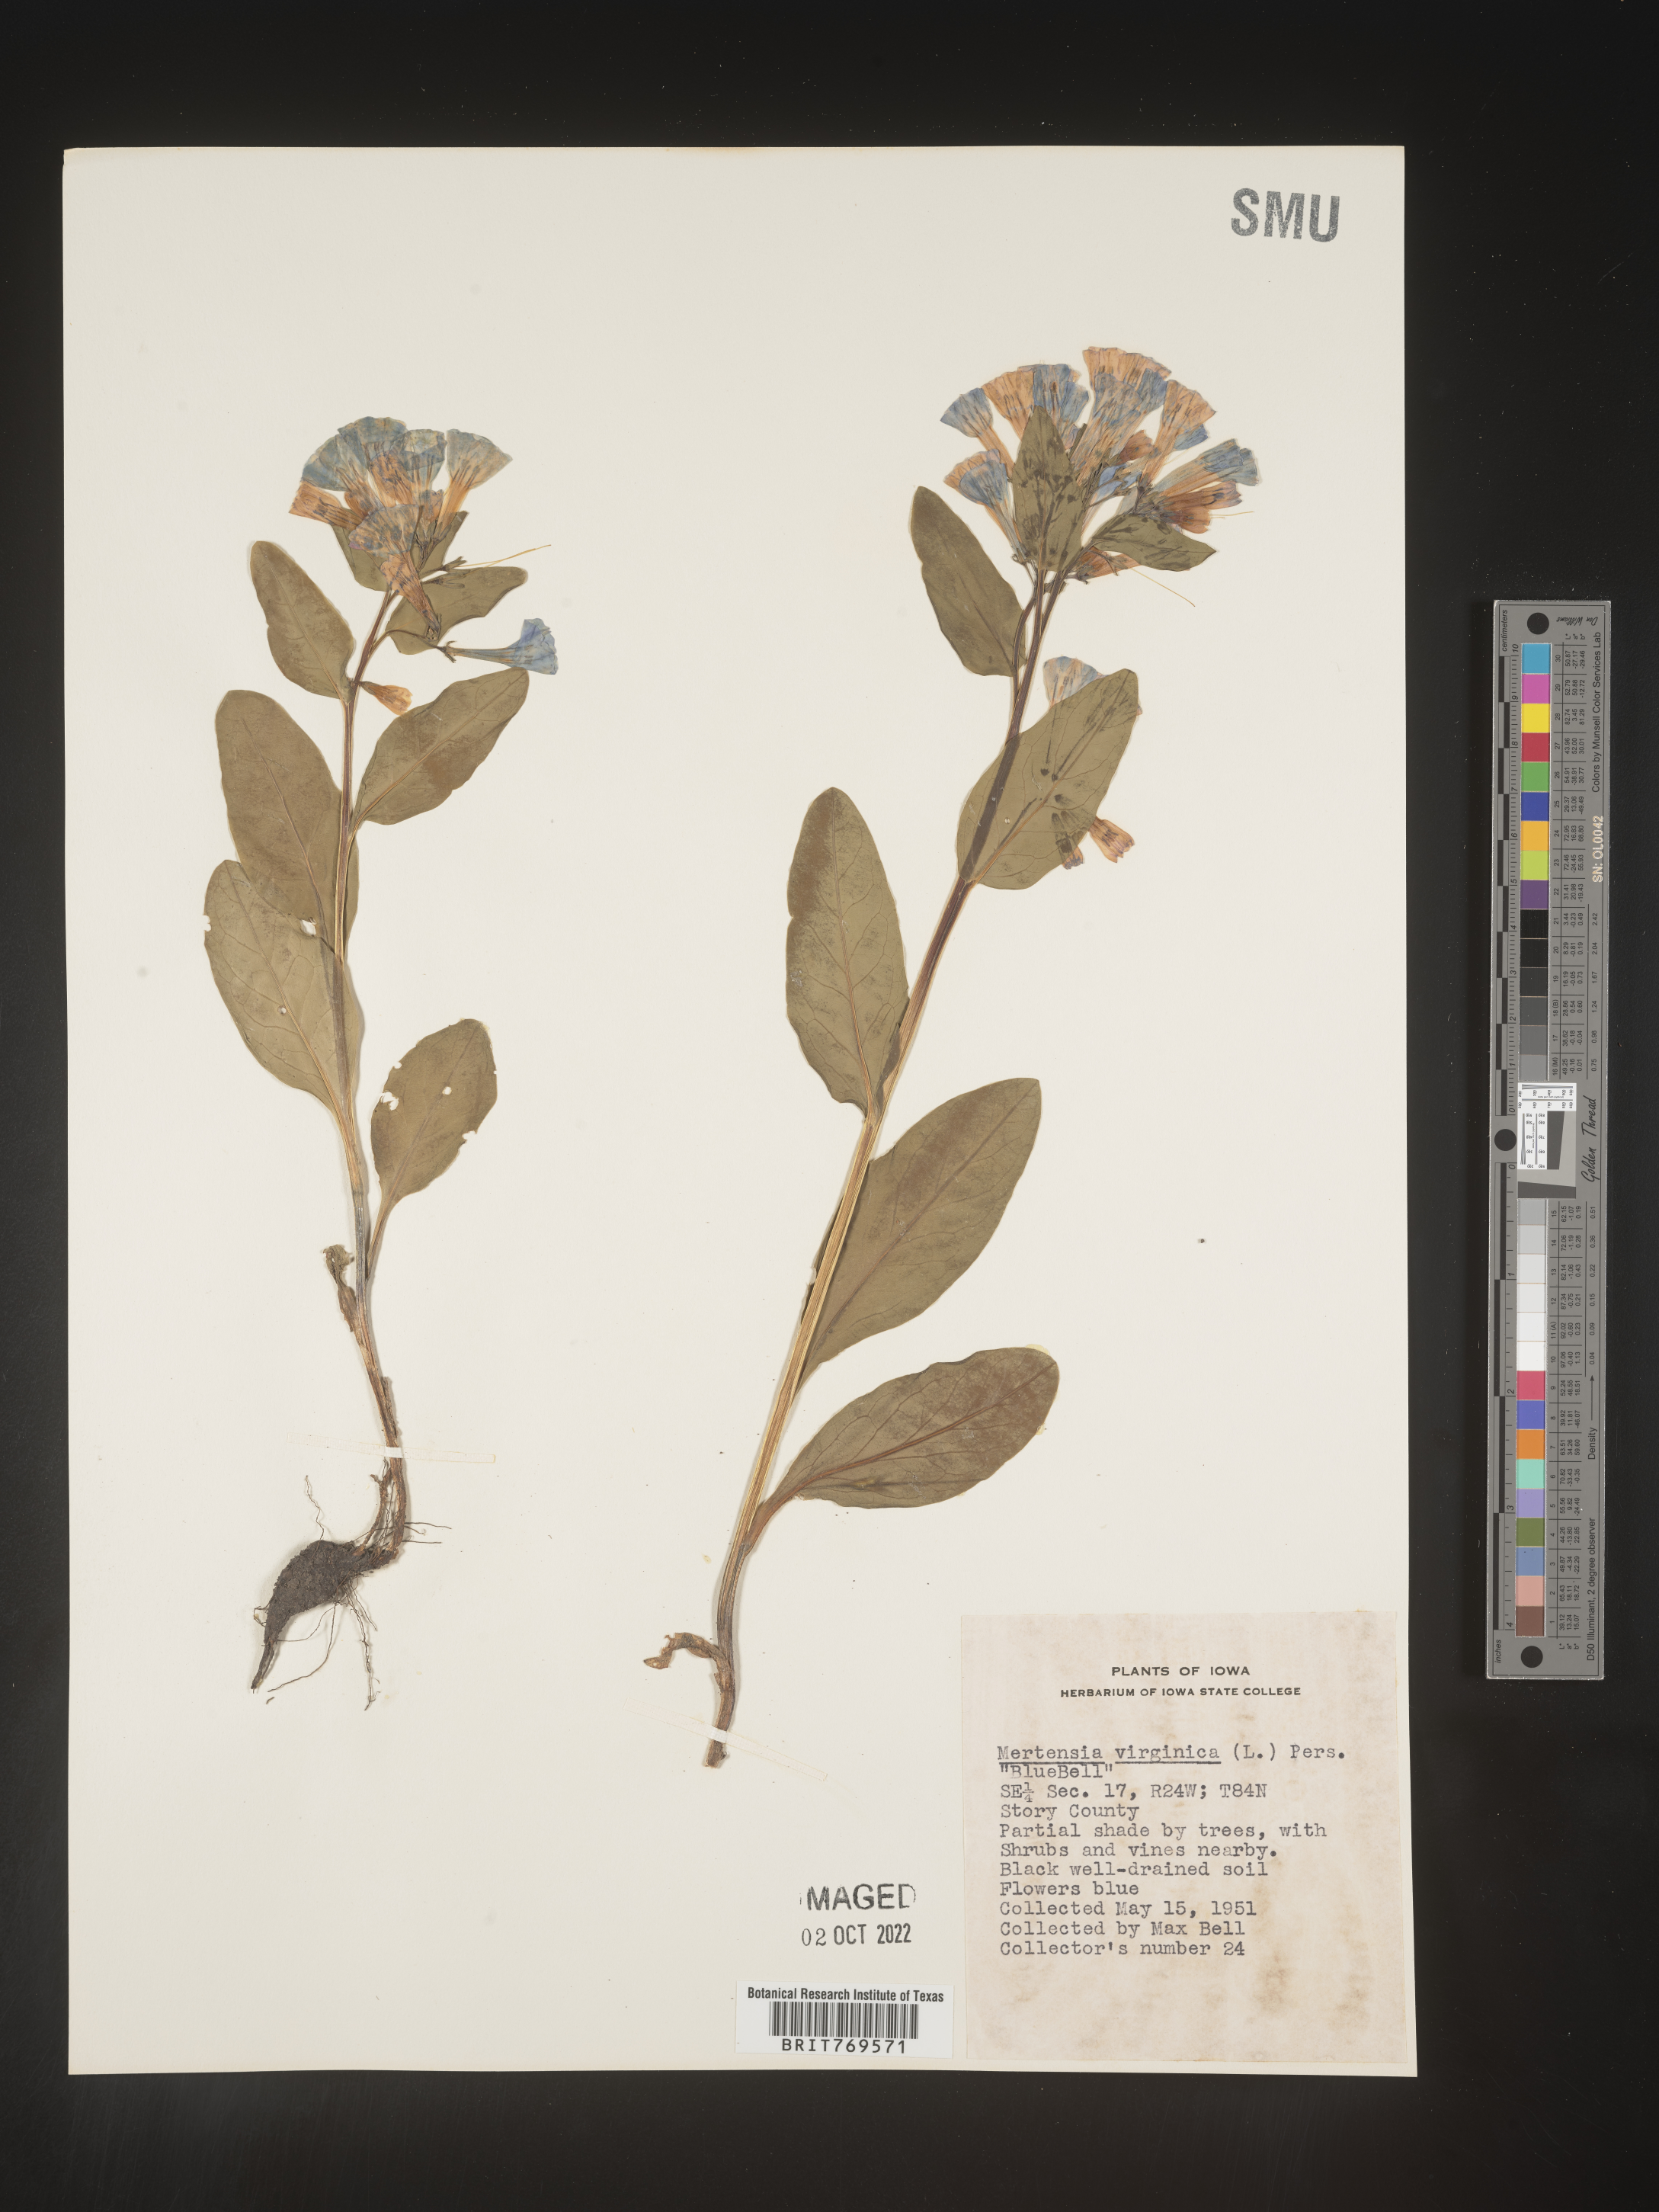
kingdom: Plantae
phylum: Tracheophyta
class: Magnoliopsida
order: Boraginales
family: Boraginaceae
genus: Mertensia
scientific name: Mertensia virginica
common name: Virginia bluebells
